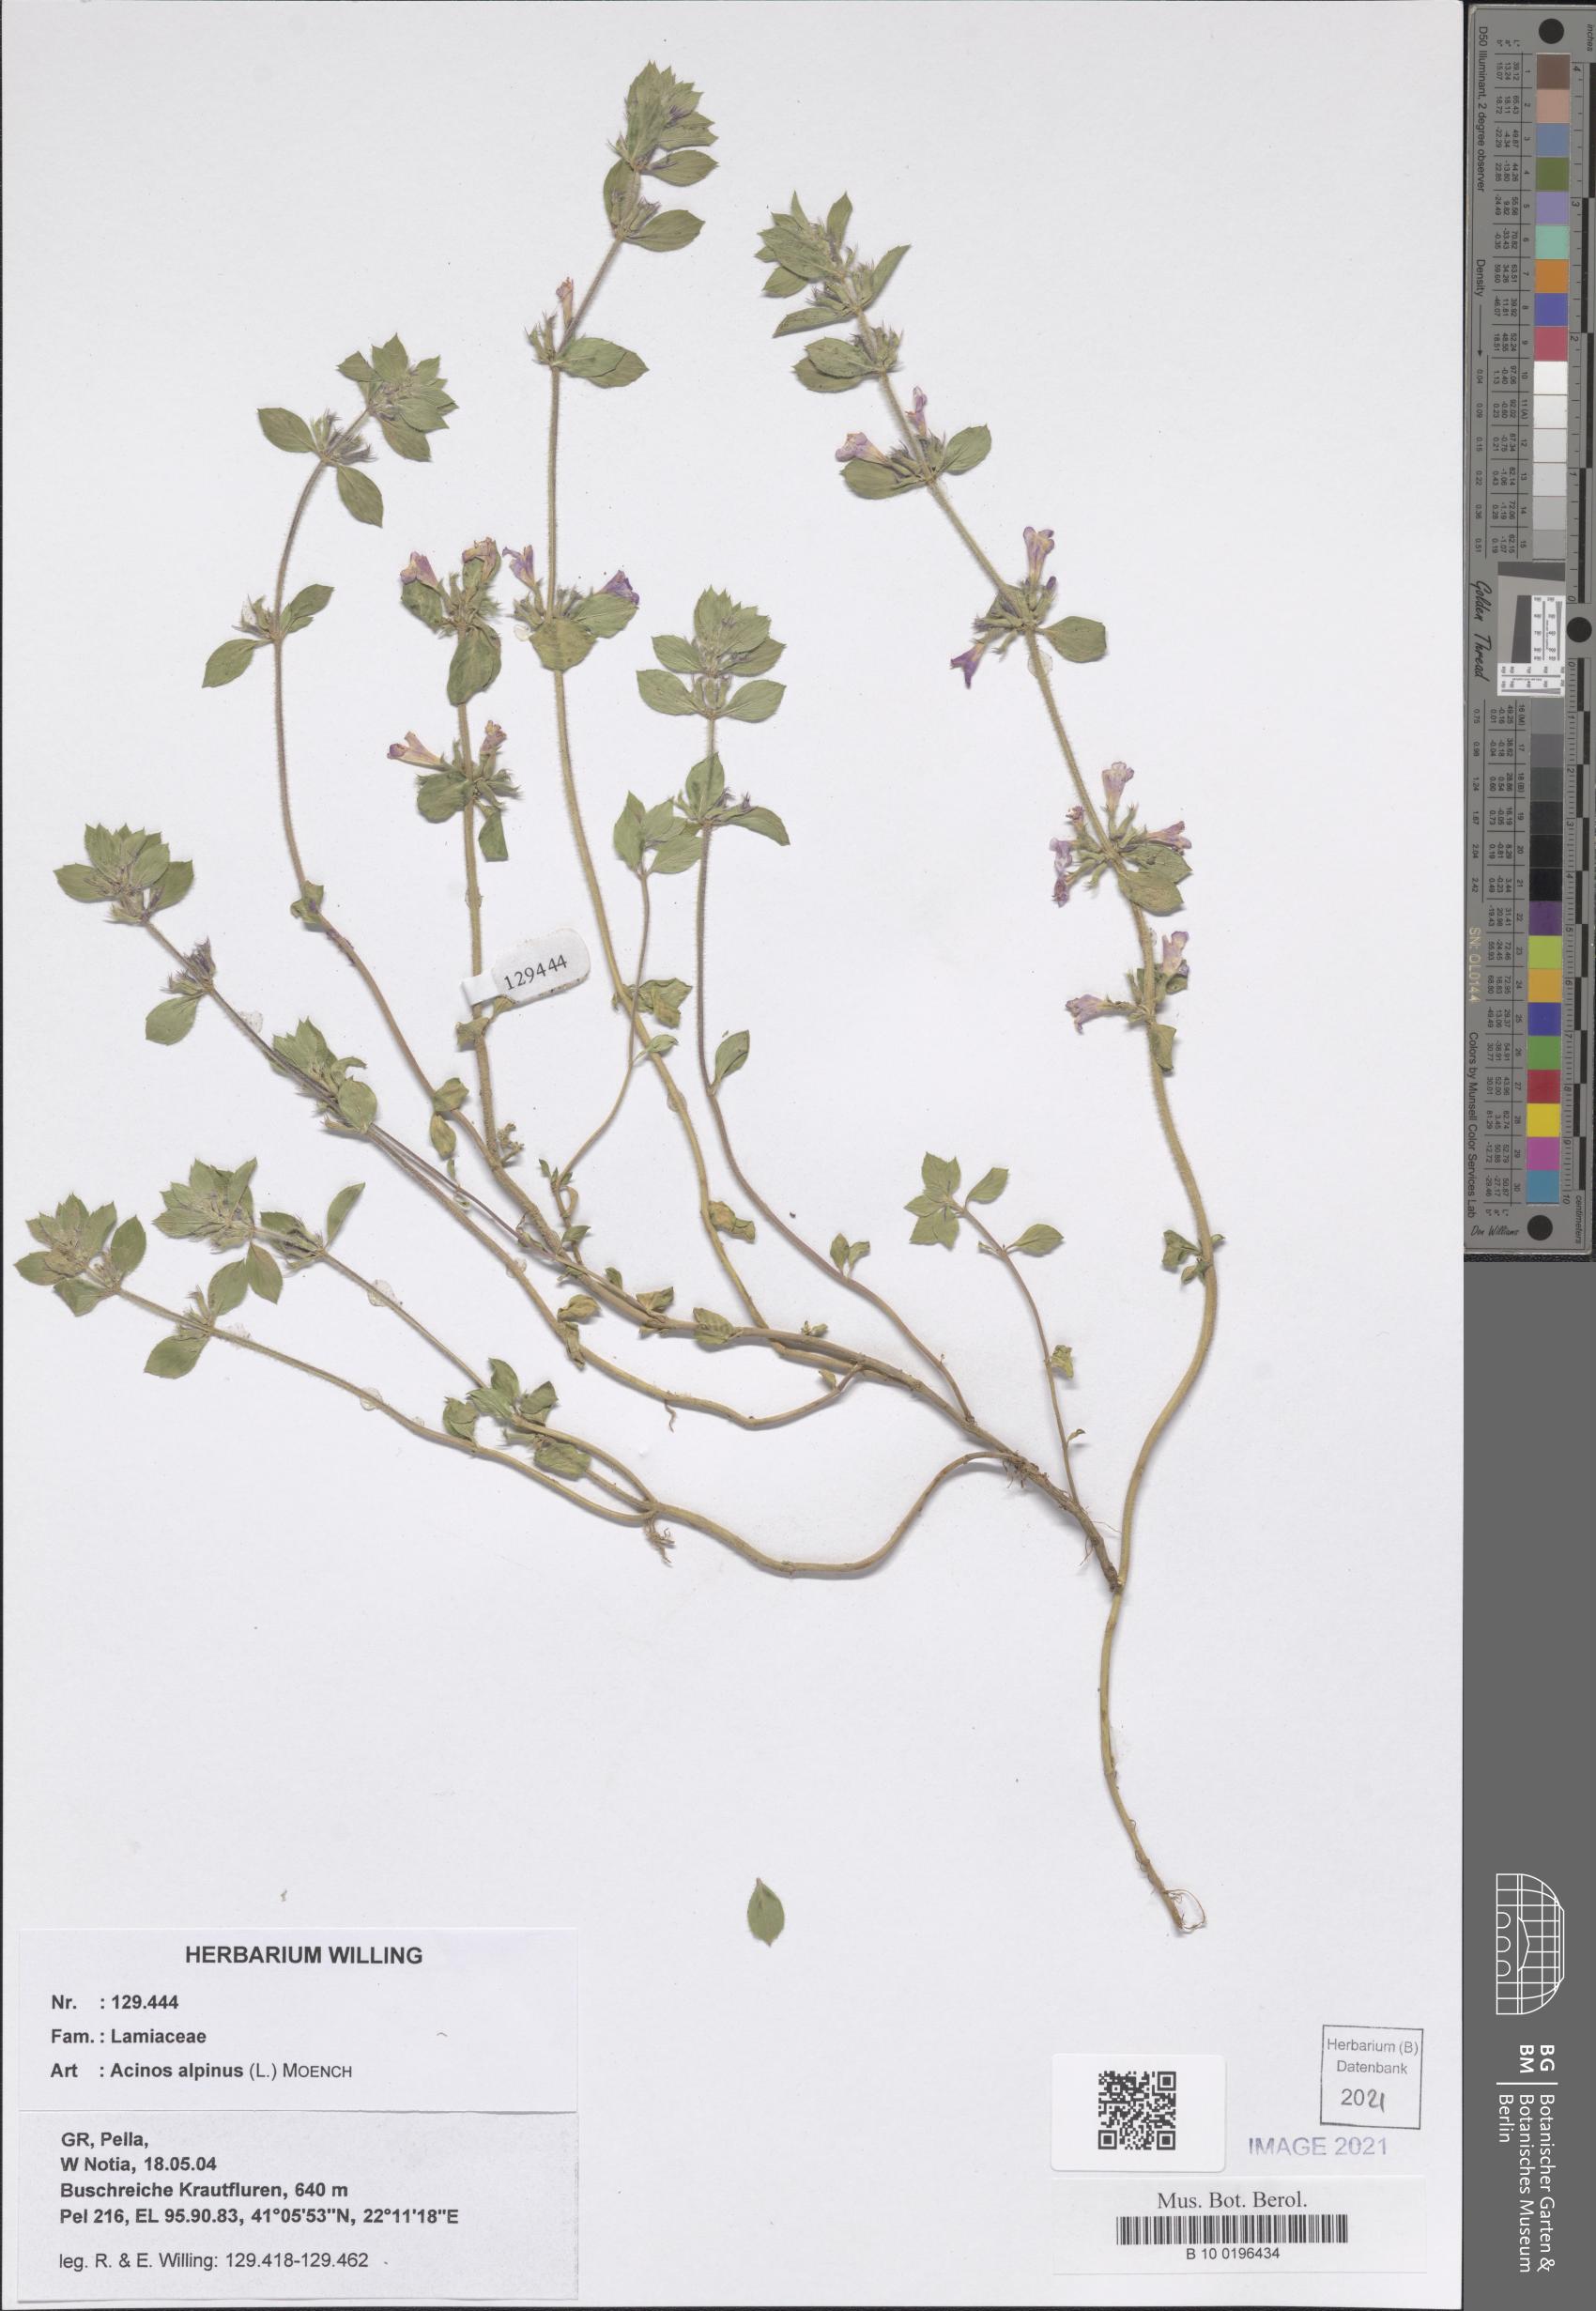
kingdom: Plantae
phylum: Tracheophyta
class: Magnoliopsida
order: Lamiales
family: Lamiaceae
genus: Clinopodium
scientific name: Clinopodium alpinum
